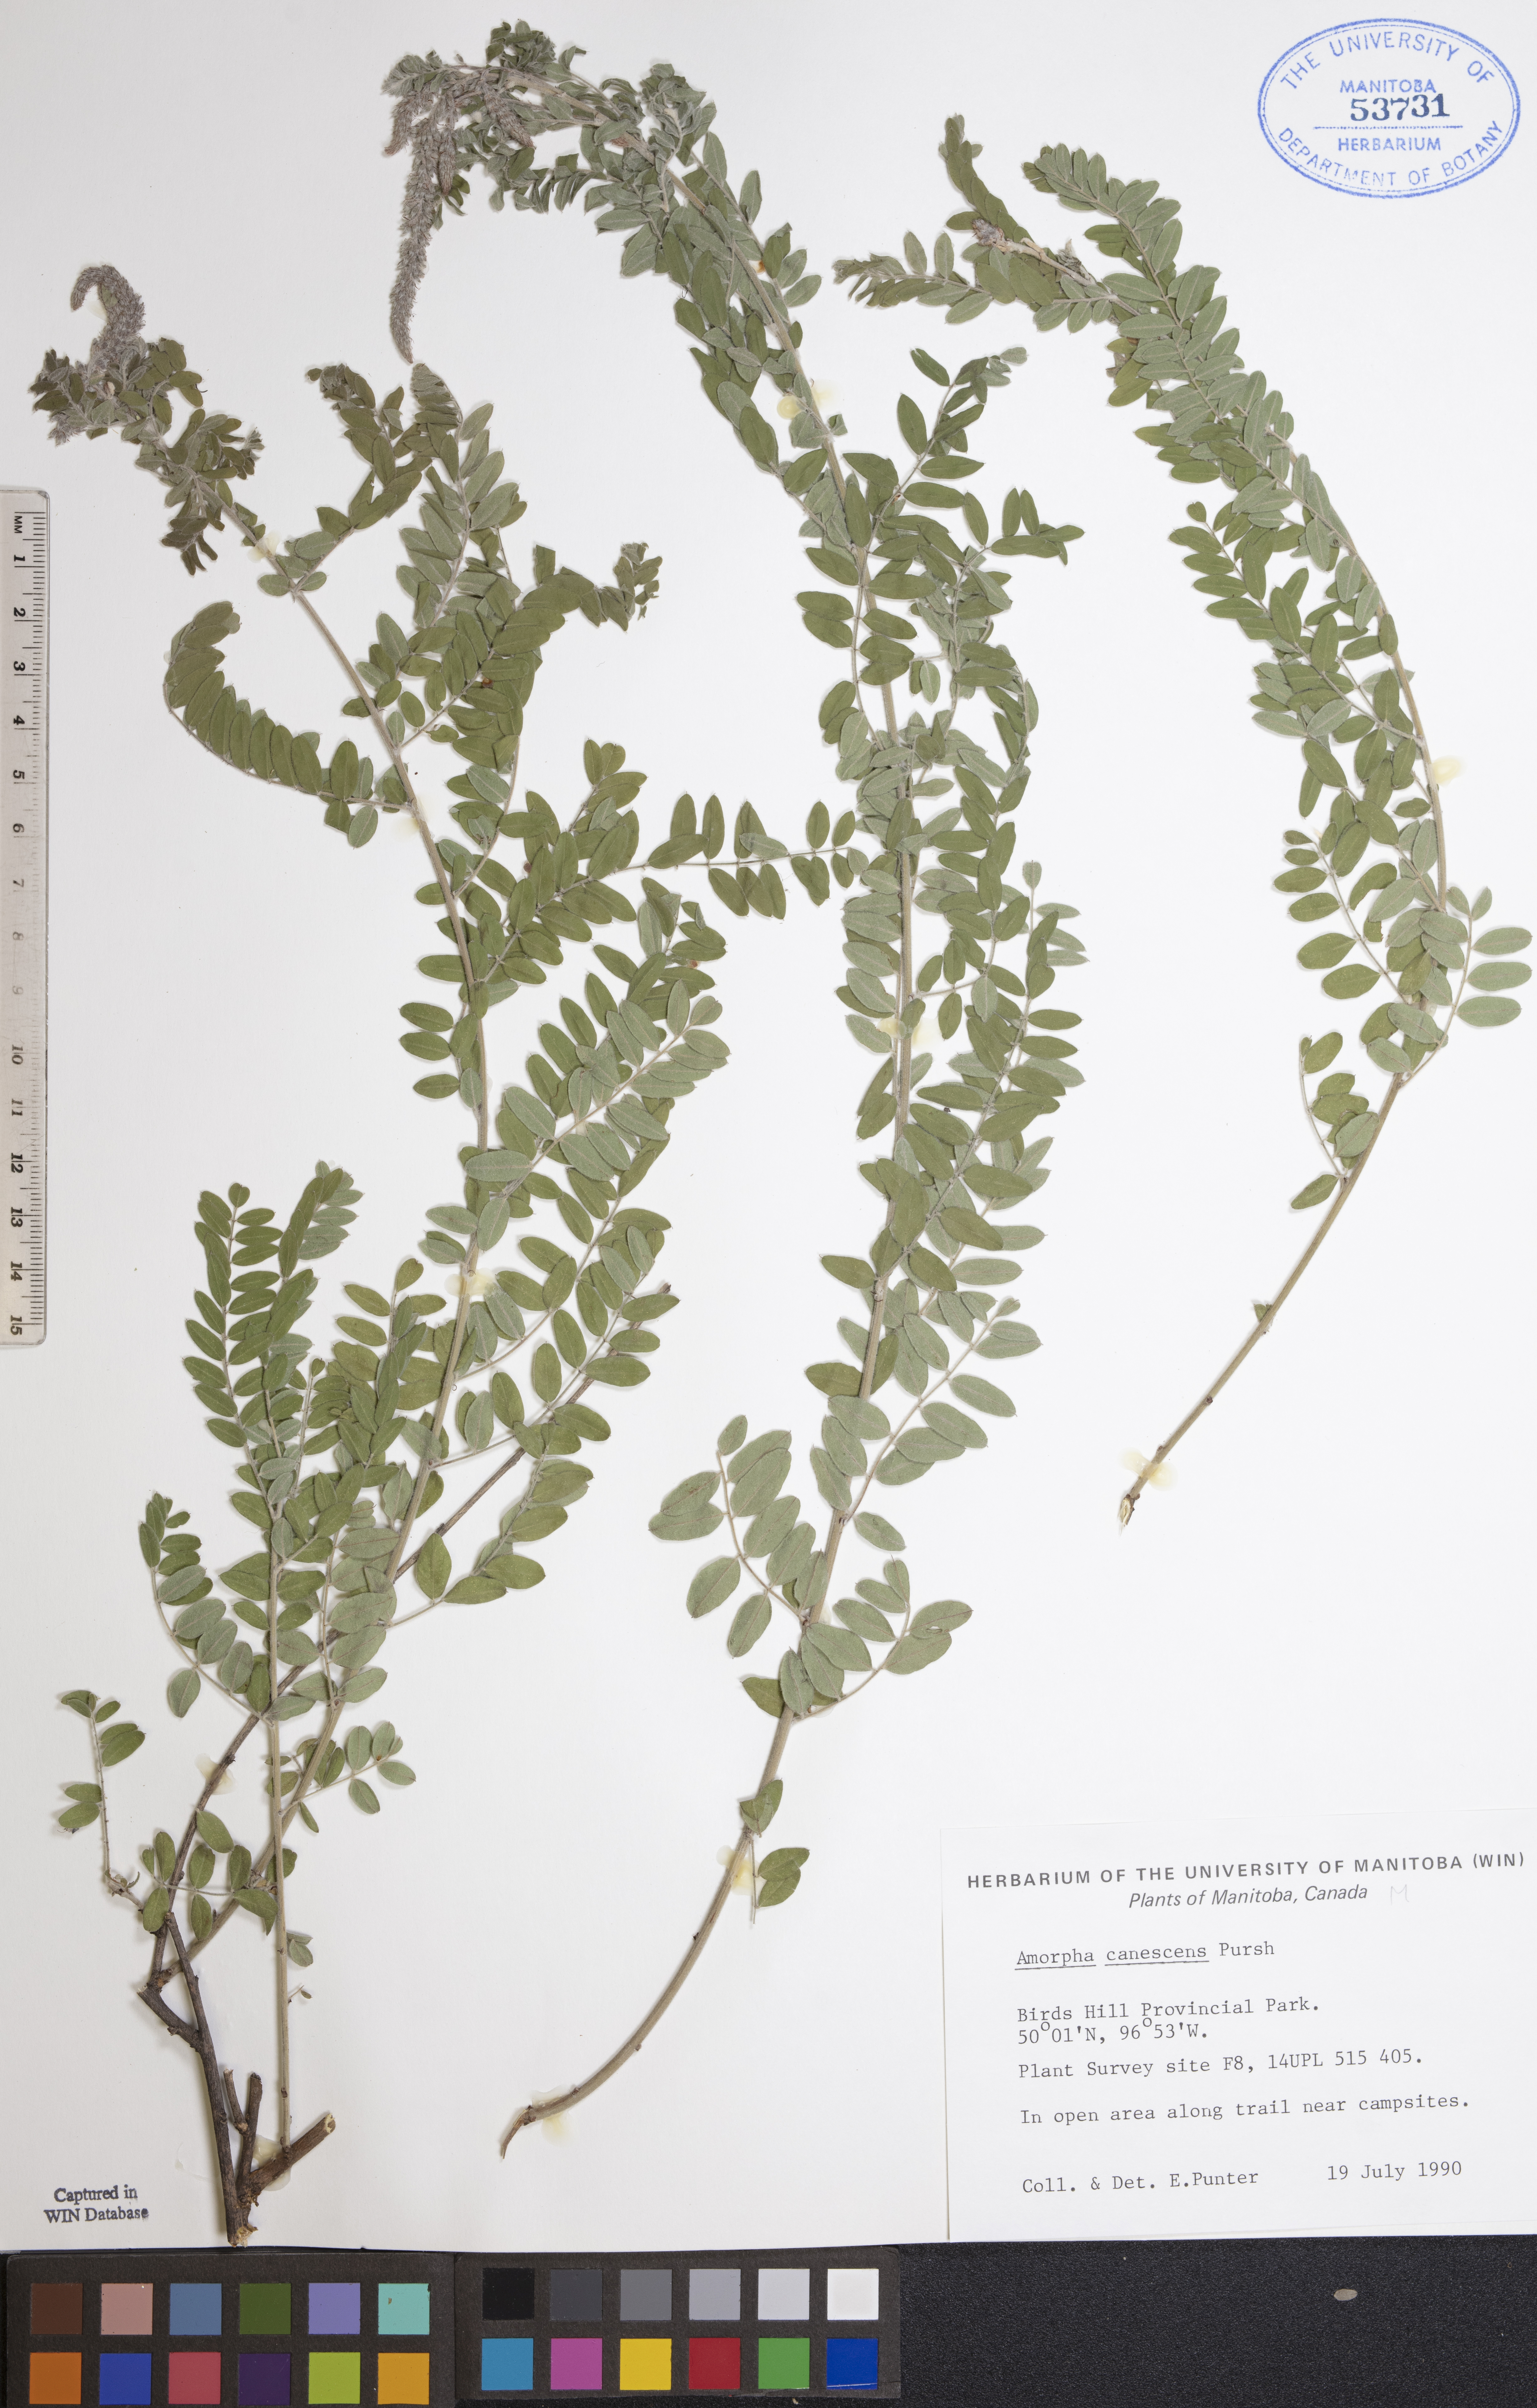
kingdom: Plantae
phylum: Tracheophyta
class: Magnoliopsida
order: Fabales
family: Fabaceae
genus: Amorpha
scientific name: Amorpha canescens
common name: Leadplant
